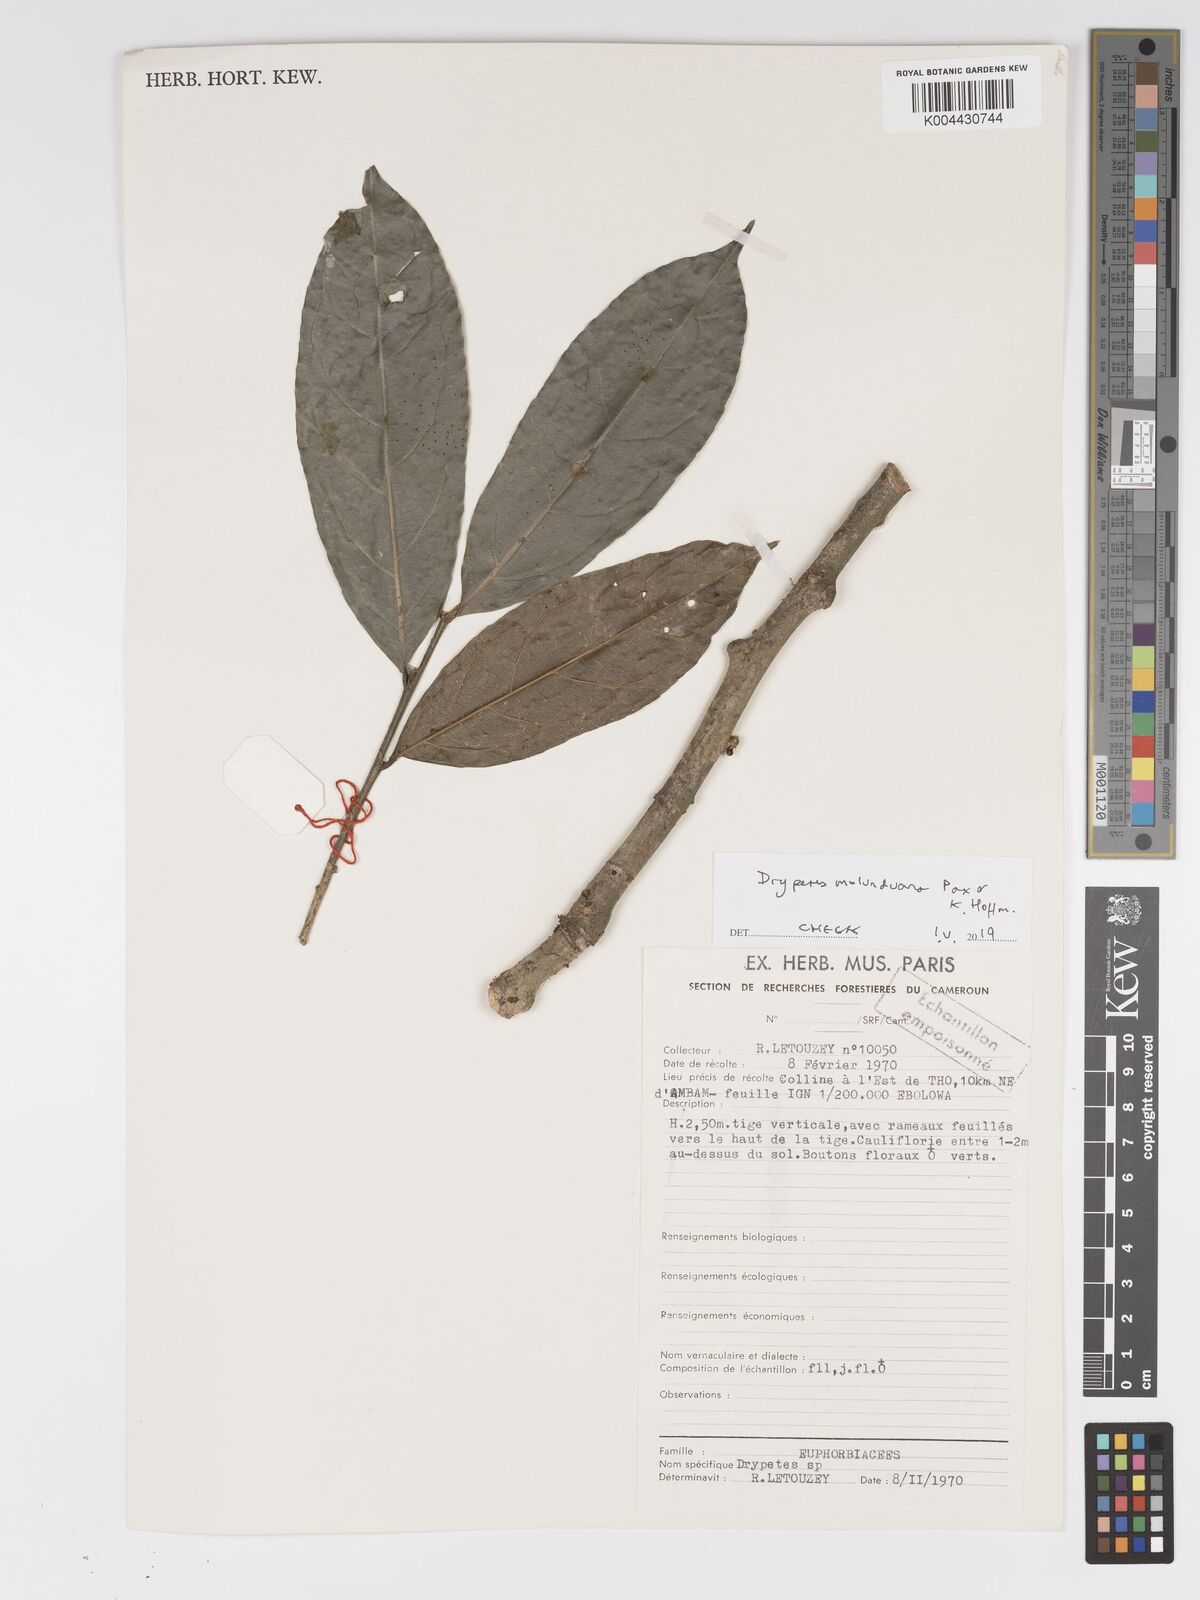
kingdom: Plantae
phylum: Tracheophyta
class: Magnoliopsida
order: Malpighiales
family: Putranjivaceae
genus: Drypetes
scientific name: Drypetes molunduana
